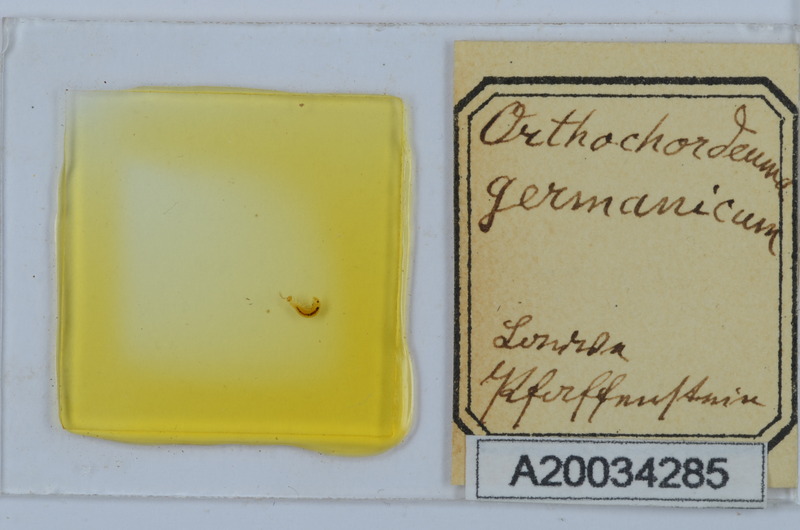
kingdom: Animalia
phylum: Arthropoda
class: Diplopoda
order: Chordeumatida
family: Chordeumatidae
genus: Mycogona
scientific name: Mycogona germanica
